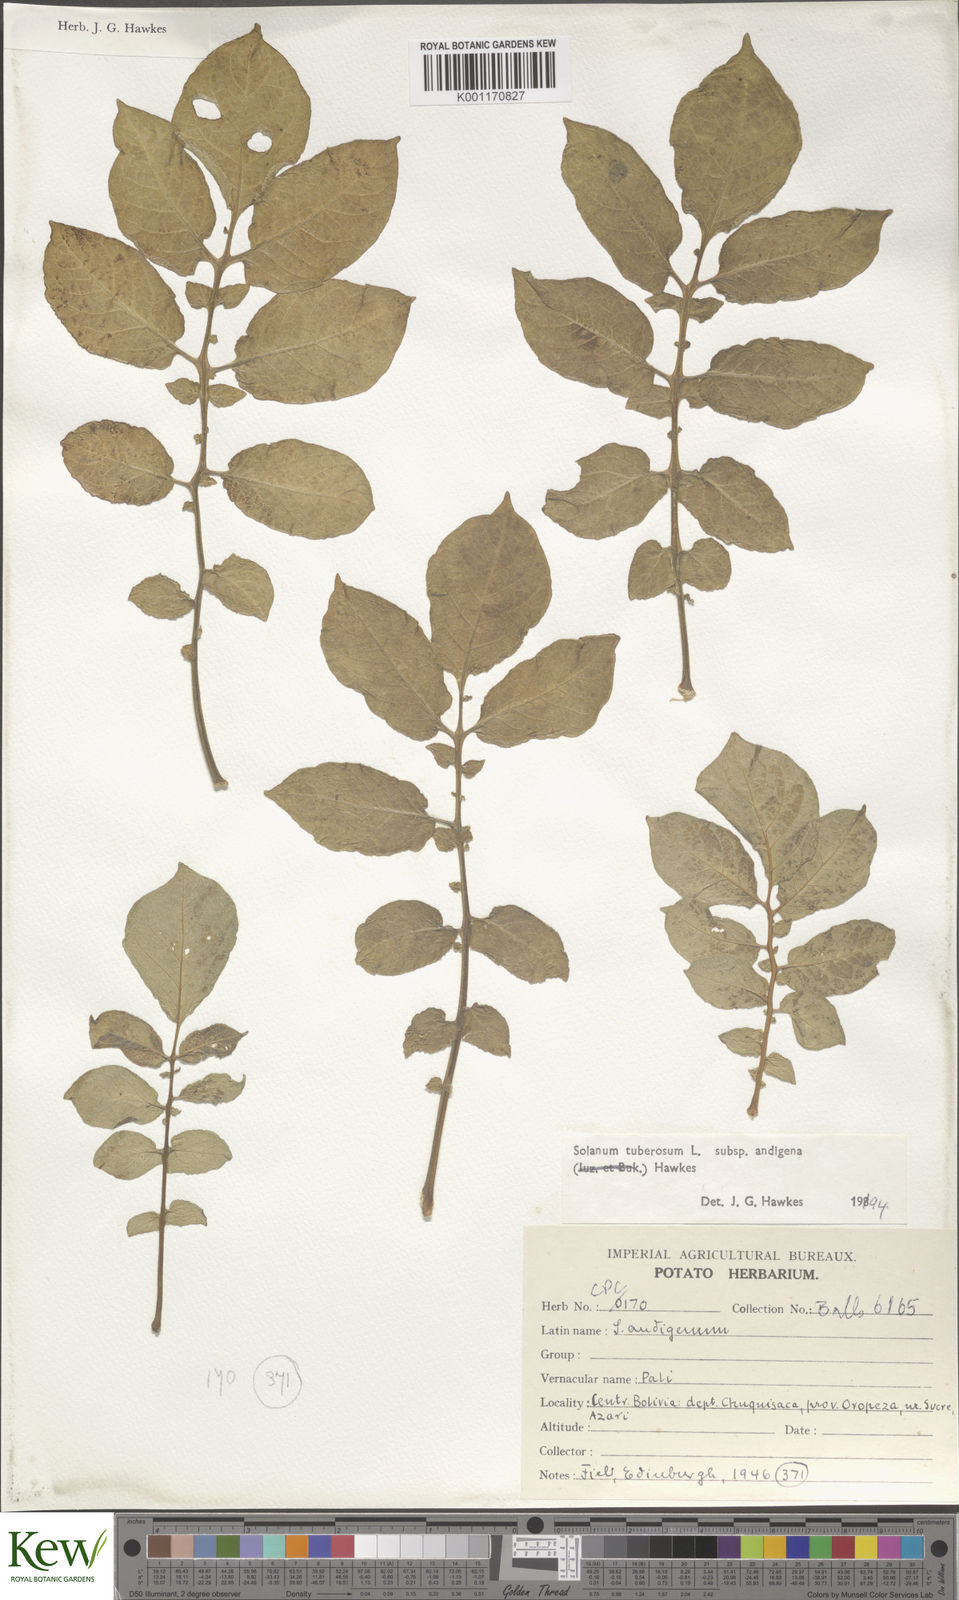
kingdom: Plantae
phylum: Tracheophyta
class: Magnoliopsida
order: Solanales
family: Solanaceae
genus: Solanum
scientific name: Solanum tuberosum
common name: Potato
